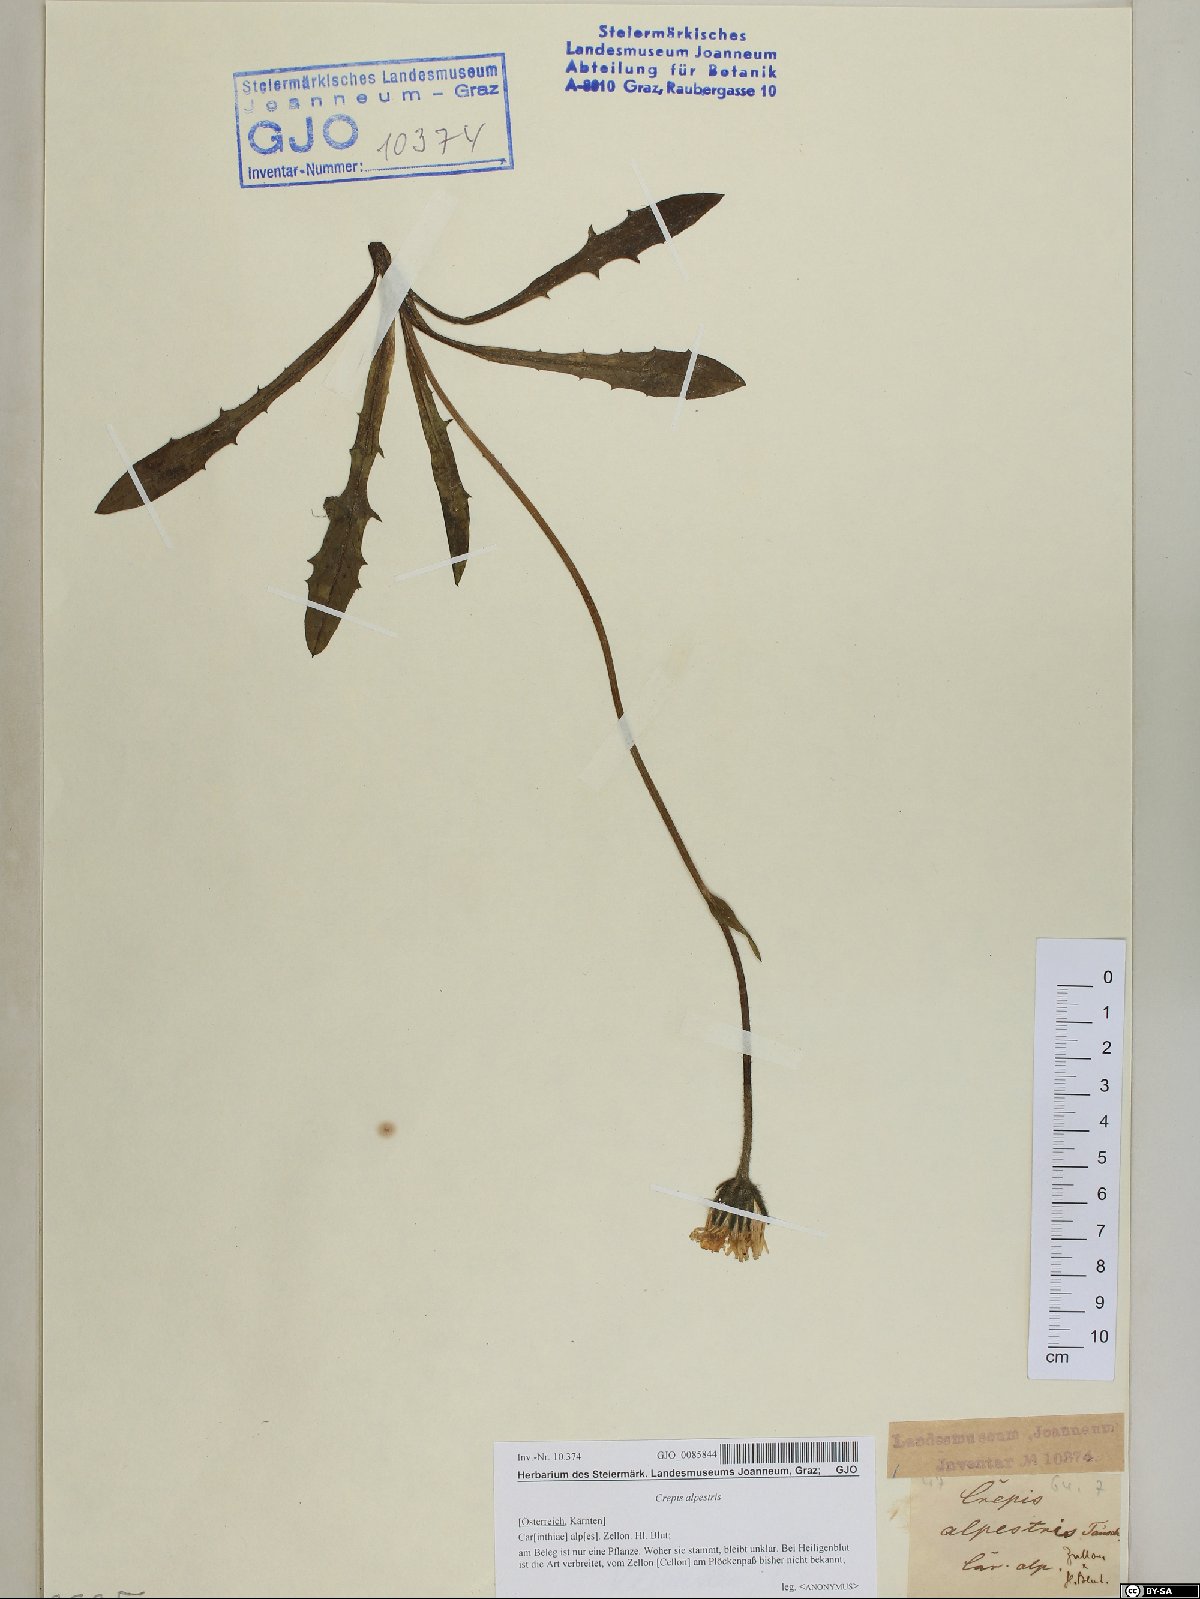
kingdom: Plantae
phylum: Tracheophyta
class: Magnoliopsida
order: Asterales
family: Asteraceae
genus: Crepis
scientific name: Crepis alpestris
